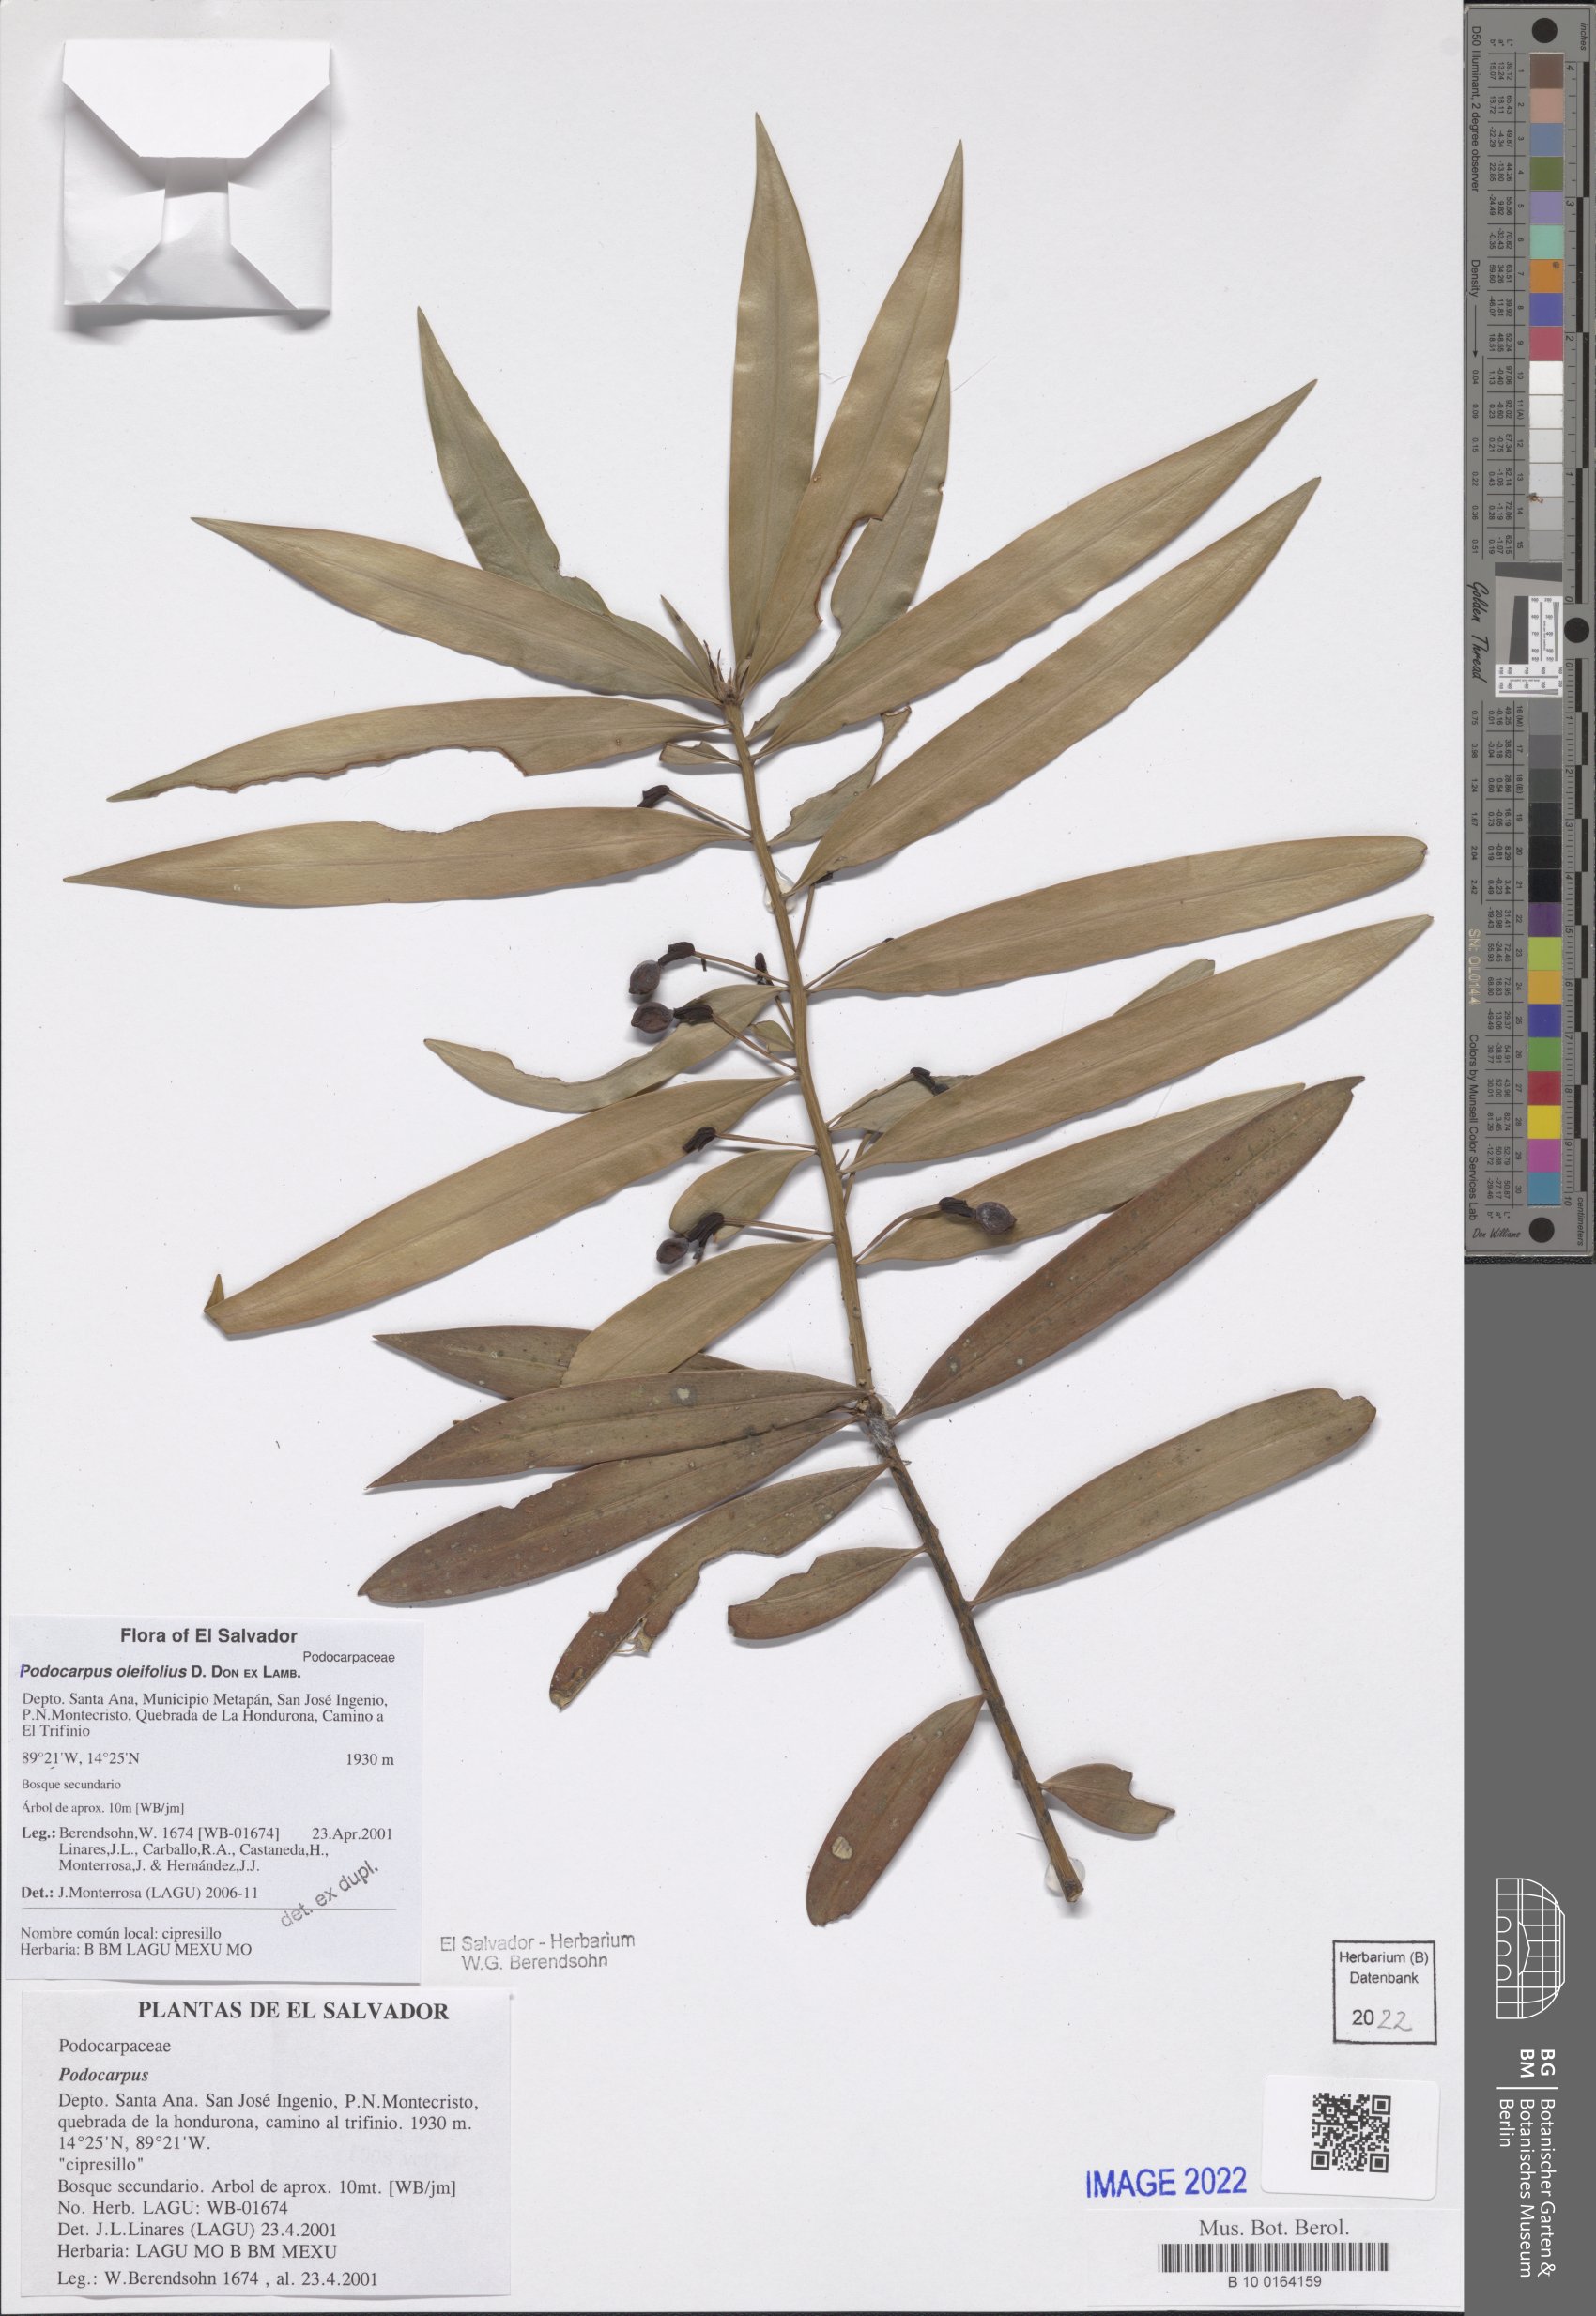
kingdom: Plantae
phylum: Tracheophyta
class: Pinopsida
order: Pinales
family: Podocarpaceae
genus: Podocarpus
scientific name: Podocarpus oleifolius
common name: Olive-leaf podoberry
